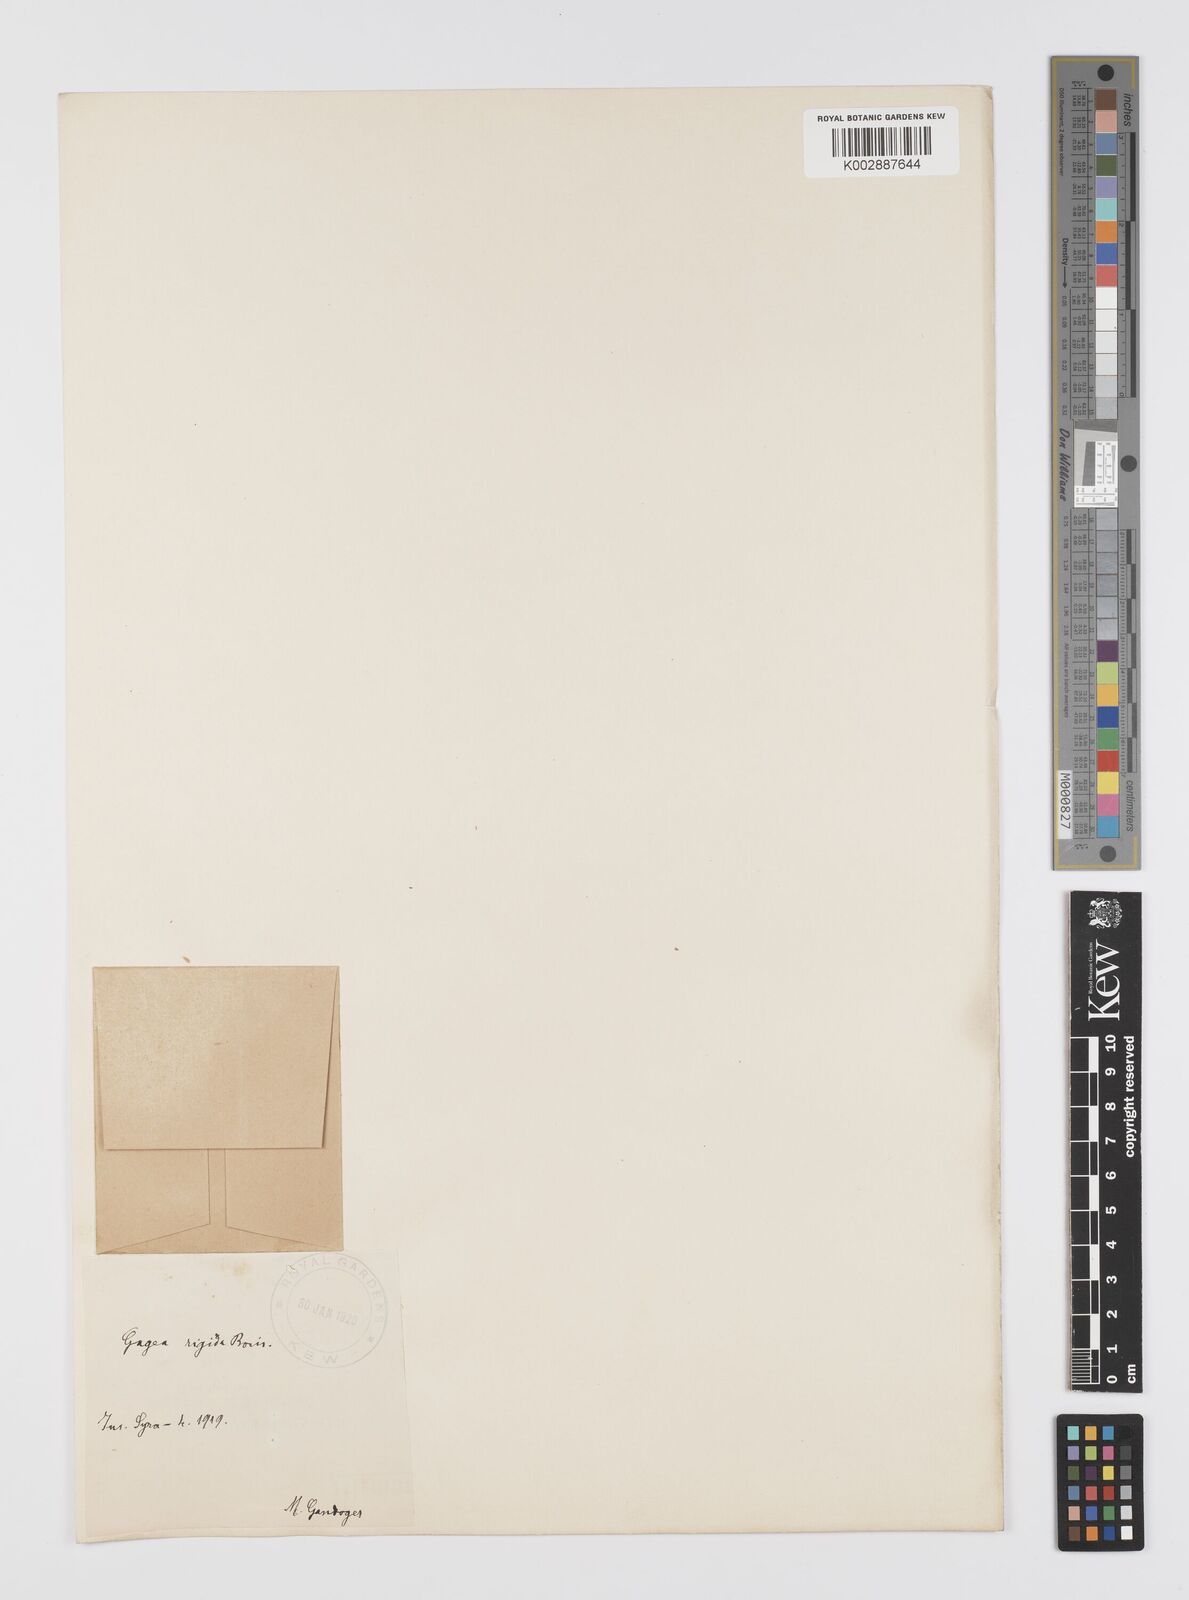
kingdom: Plantae
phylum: Tracheophyta
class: Liliopsida
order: Liliales
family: Liliaceae
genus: Gagea
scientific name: Gagea reticulata
